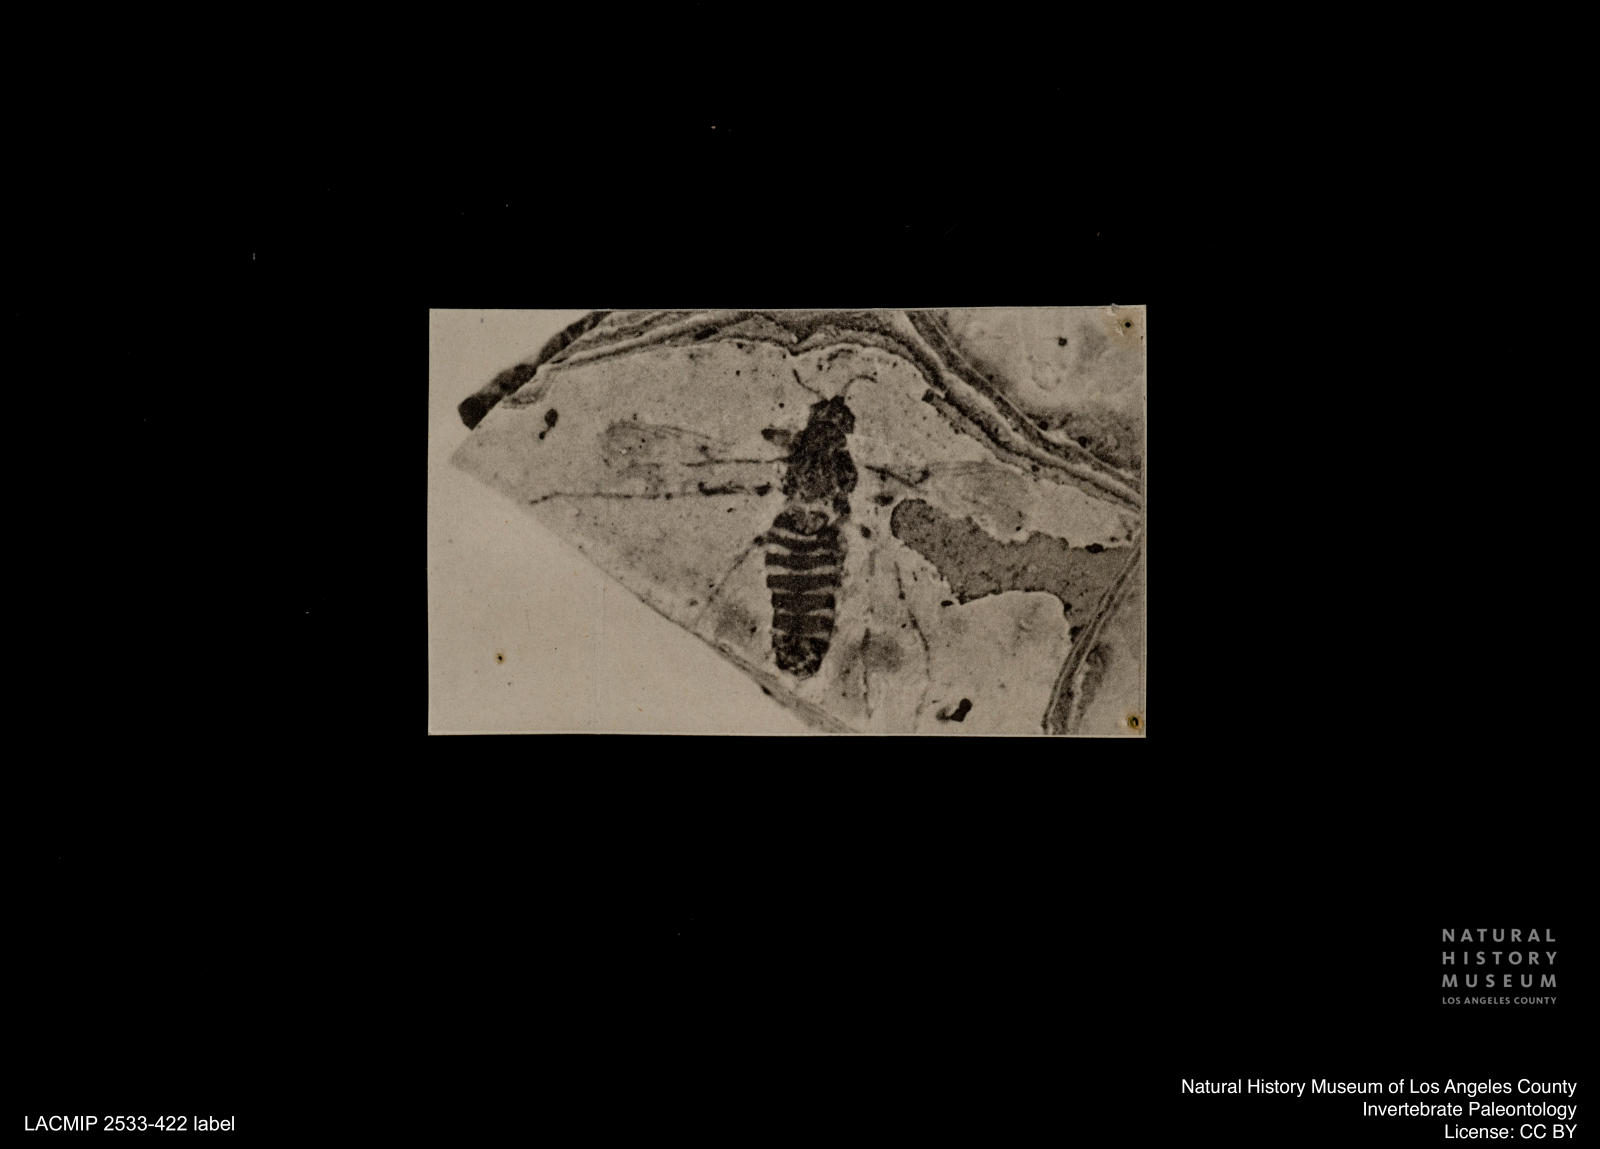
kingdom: Animalia
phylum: Arthropoda
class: Insecta
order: Diptera
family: Chironomidae
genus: Tanypus
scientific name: Tanypus pagasti
